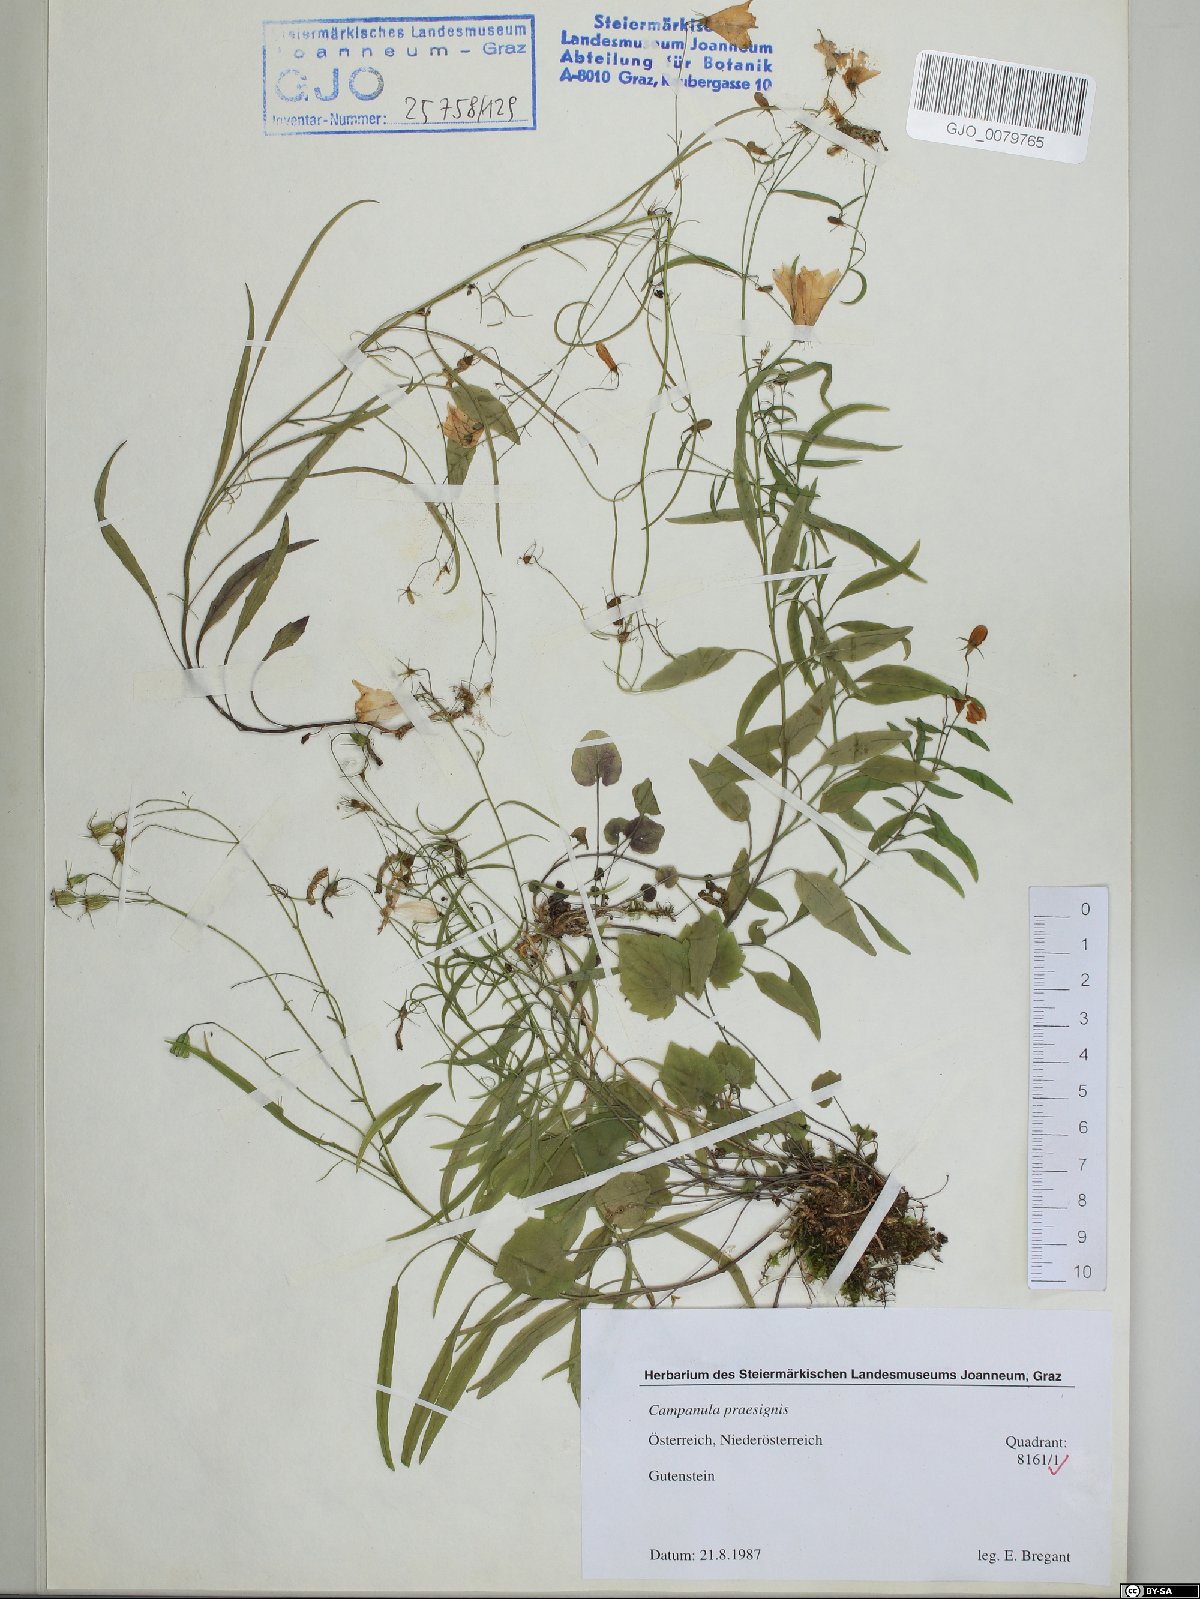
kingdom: Plantae
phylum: Tracheophyta
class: Magnoliopsida
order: Asterales
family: Campanulaceae
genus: Campanula
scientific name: Campanula praesignis
